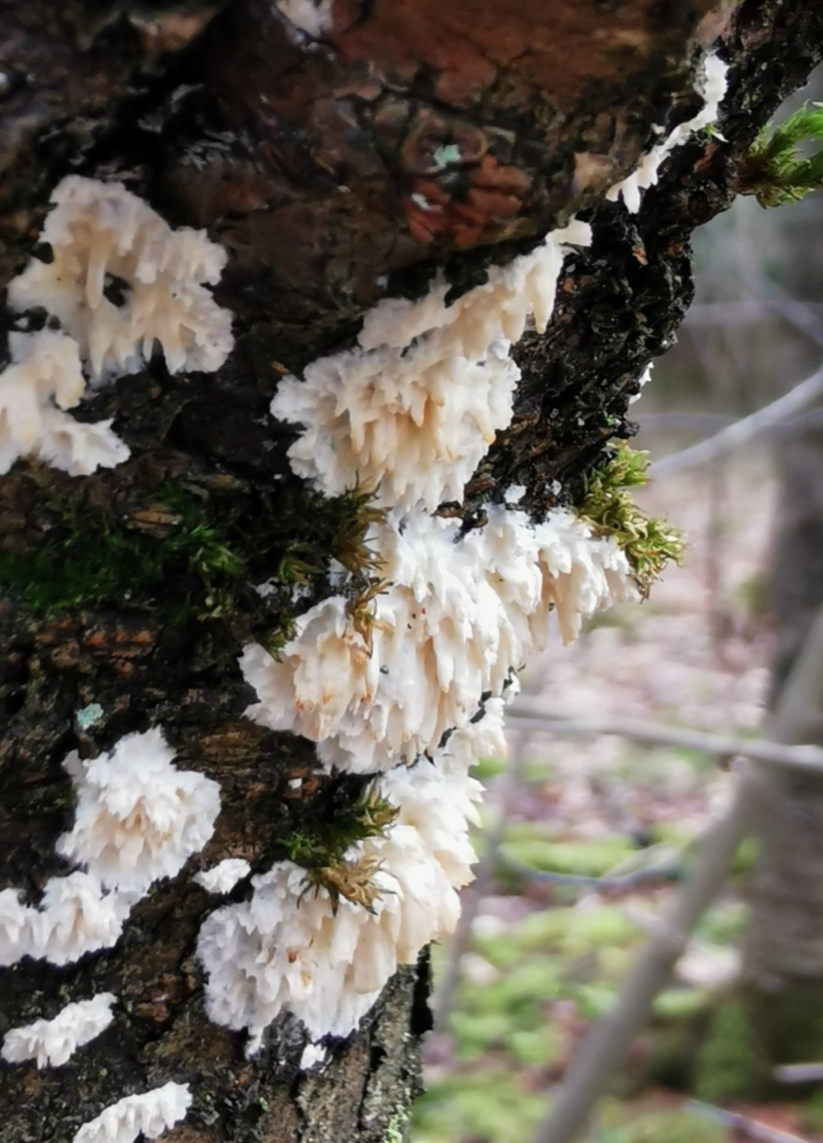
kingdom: Fungi
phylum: Basidiomycota
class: Agaricomycetes
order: Hymenochaetales
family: Schizoporaceae
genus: Xylodon
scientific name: Xylodon radula
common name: grovtandet kalkskind
